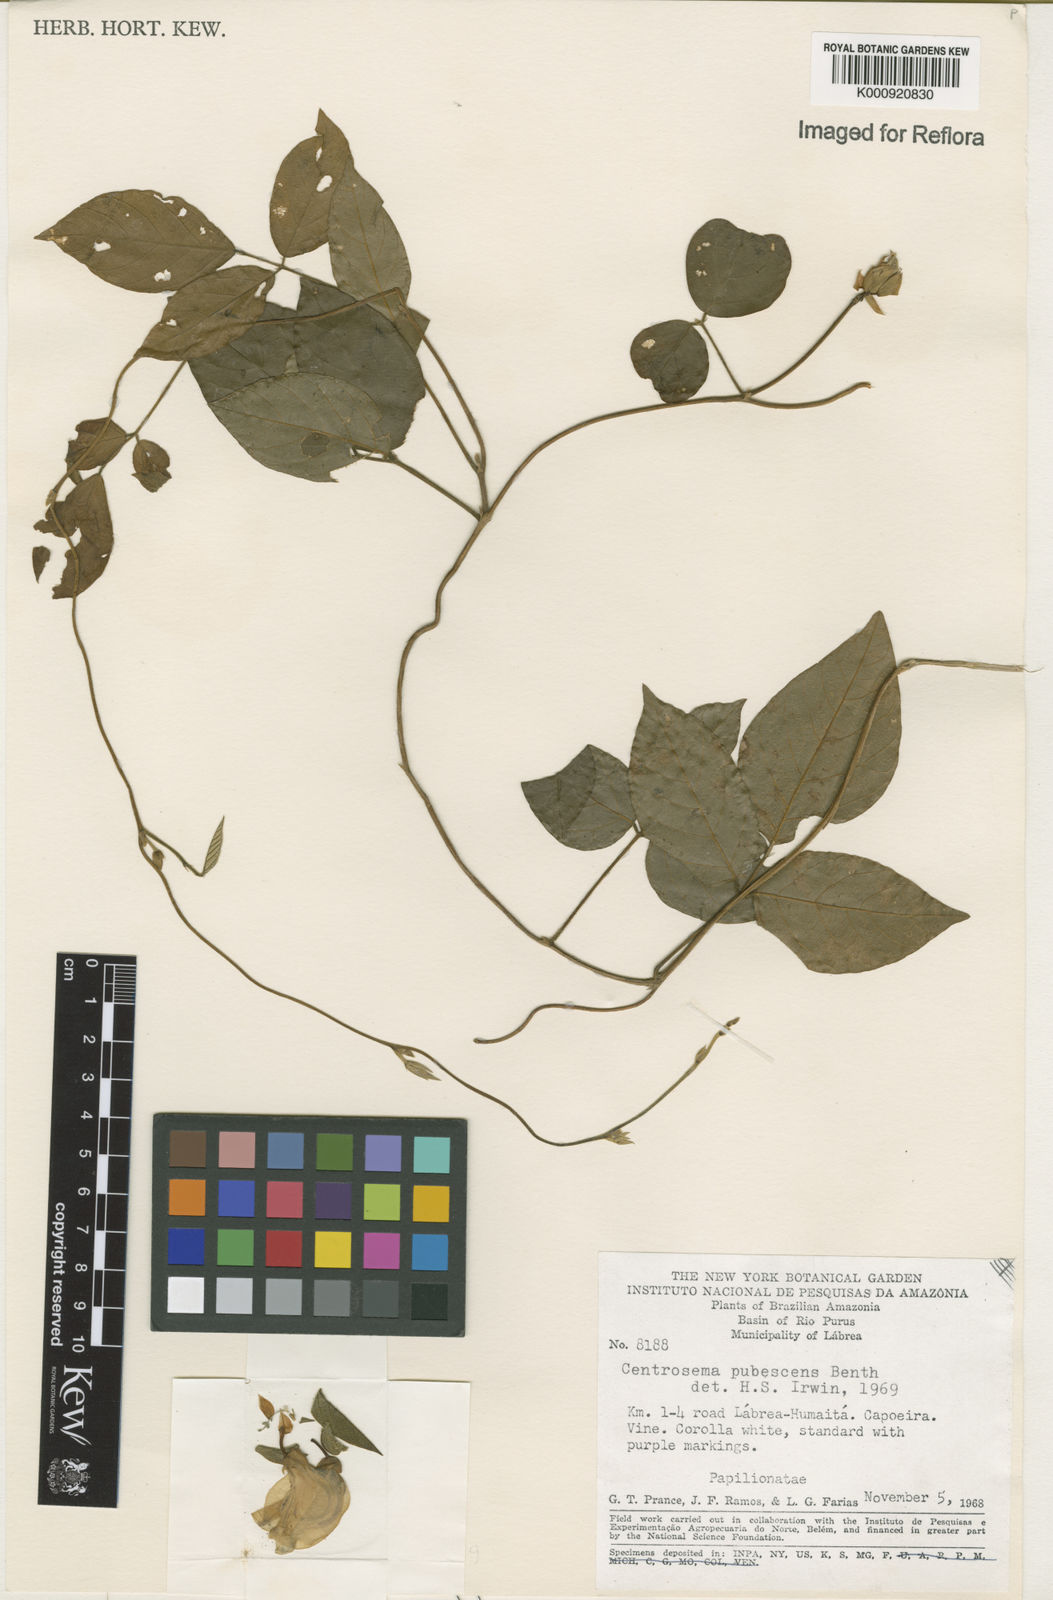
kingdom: Plantae
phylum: Tracheophyta
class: Magnoliopsida
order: Fabales
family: Fabaceae
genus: Centrosema
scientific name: Centrosema pubescens
